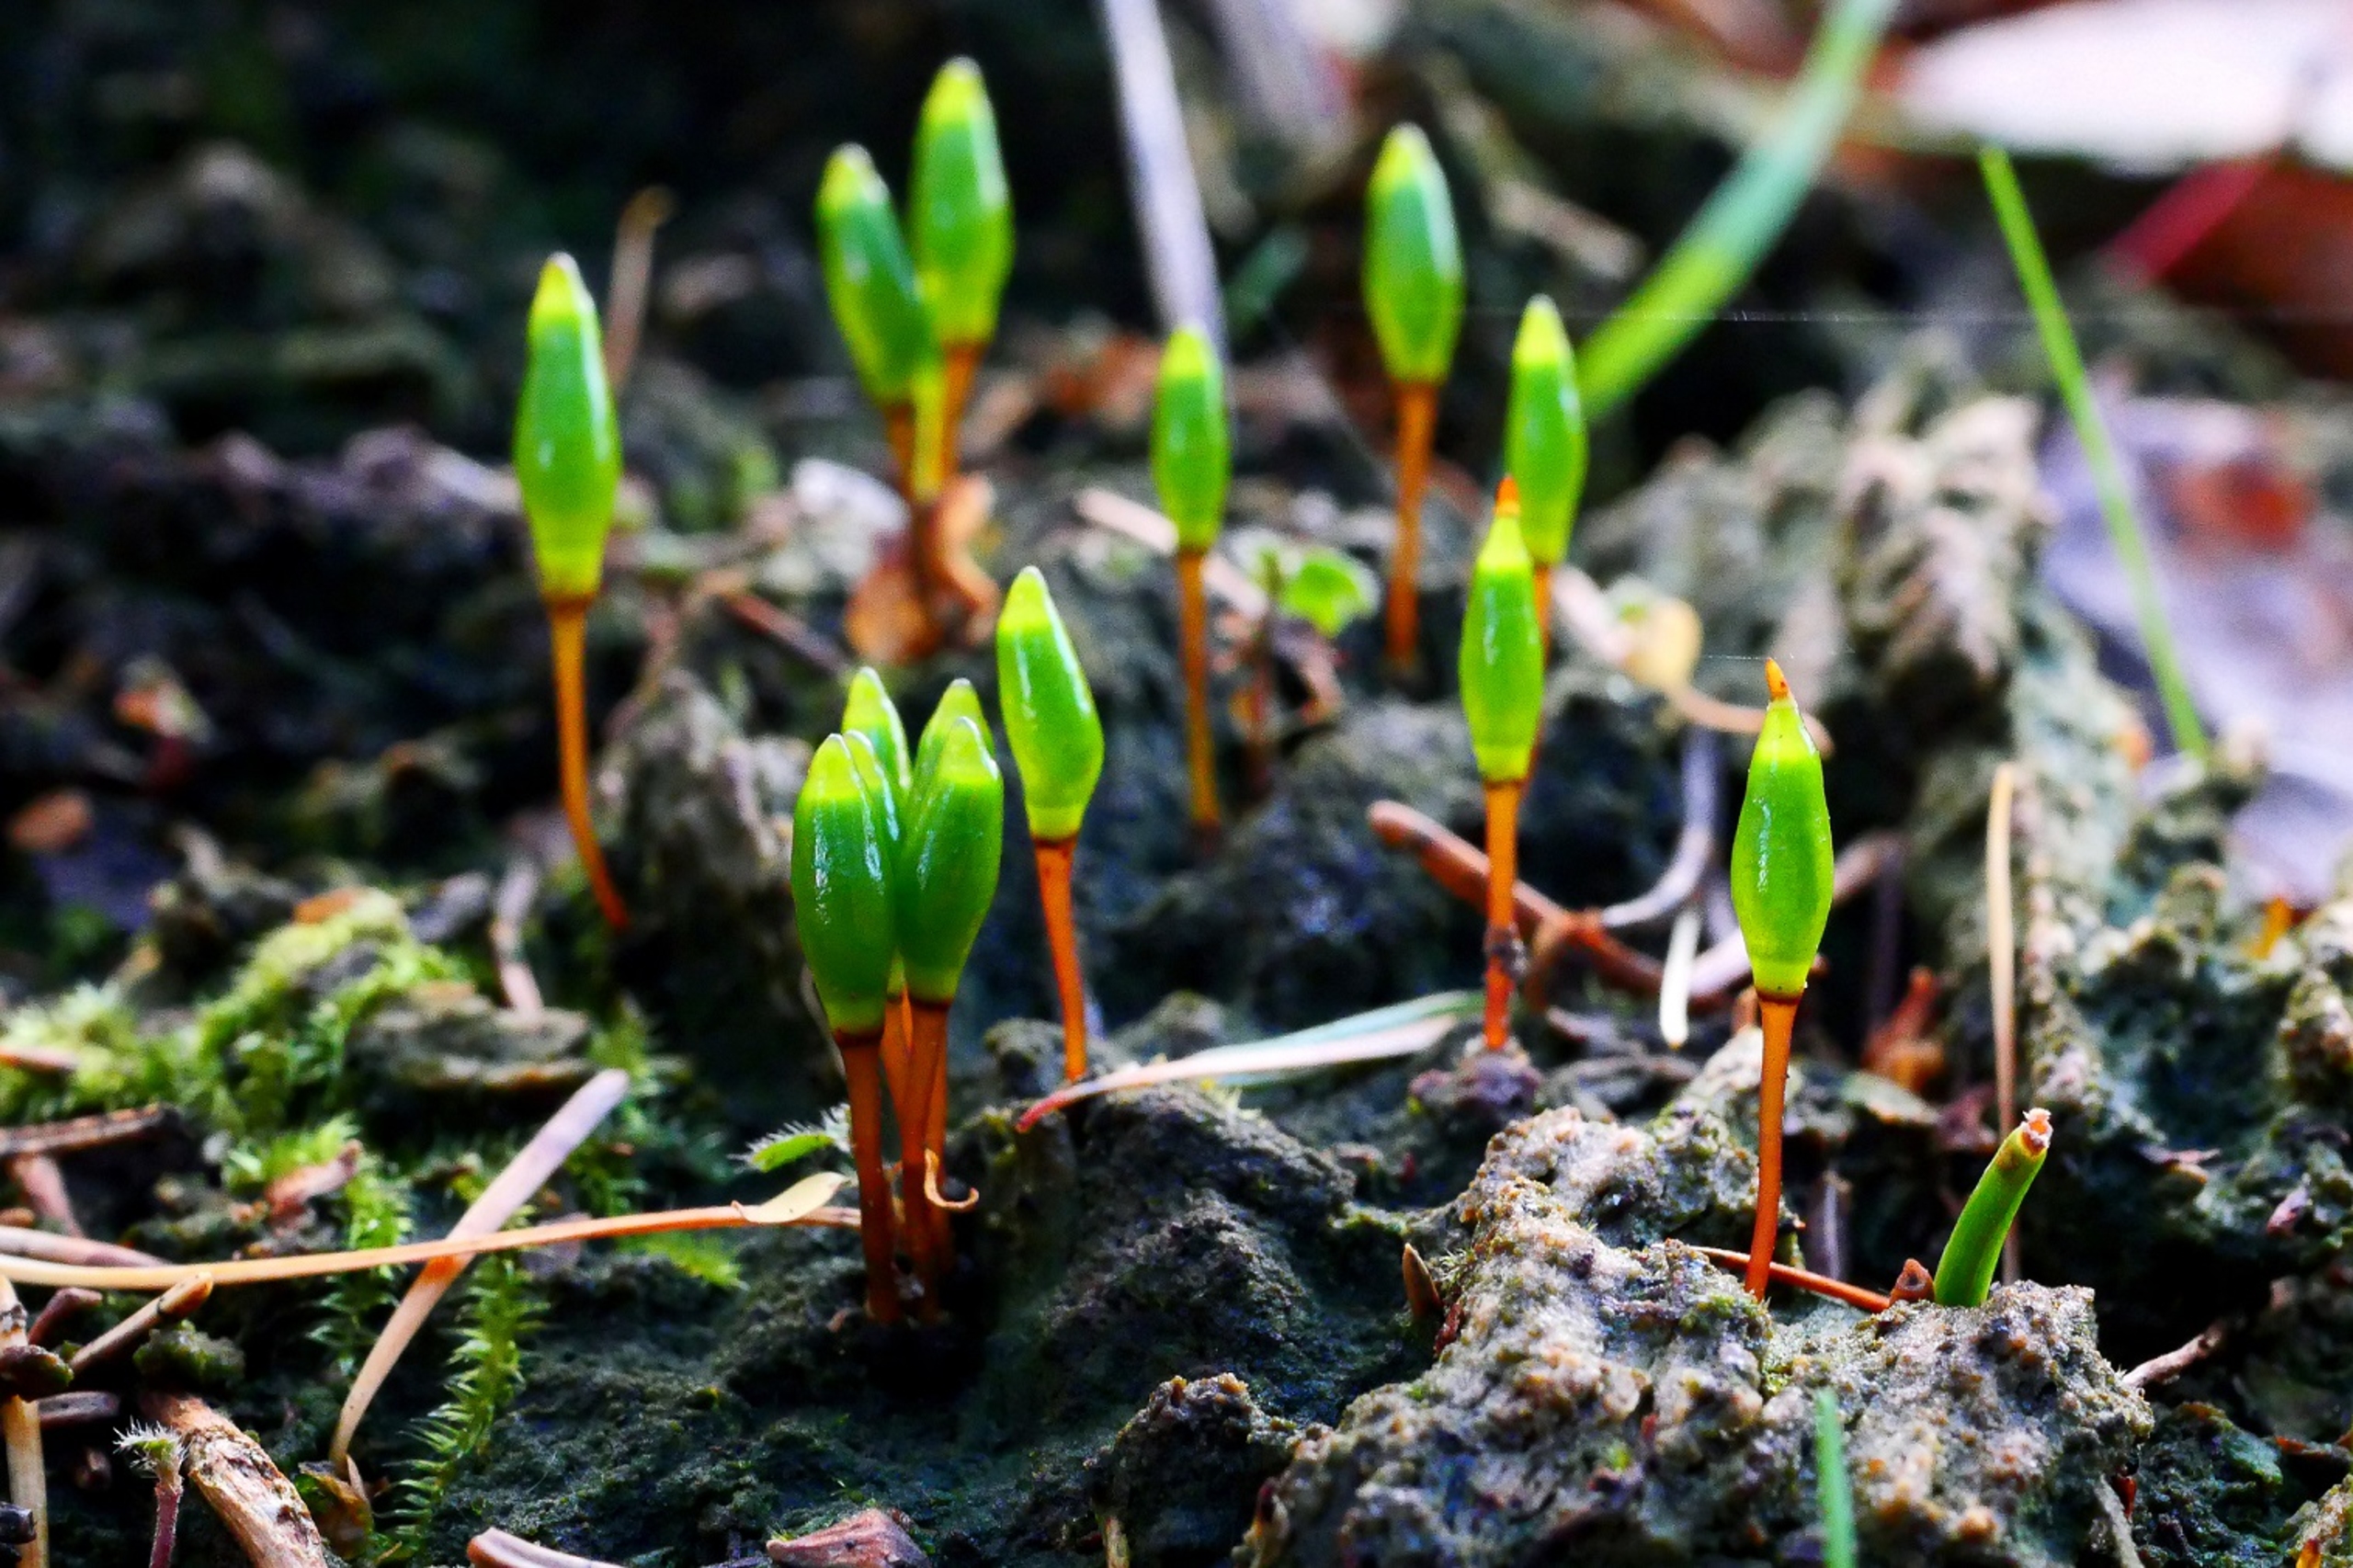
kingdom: Plantae
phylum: Bryophyta
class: Bryopsida
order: Buxbaumiales
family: Buxbaumiaceae
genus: Buxbaumia
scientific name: Buxbaumia viridis
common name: Grøn buxbaumia
